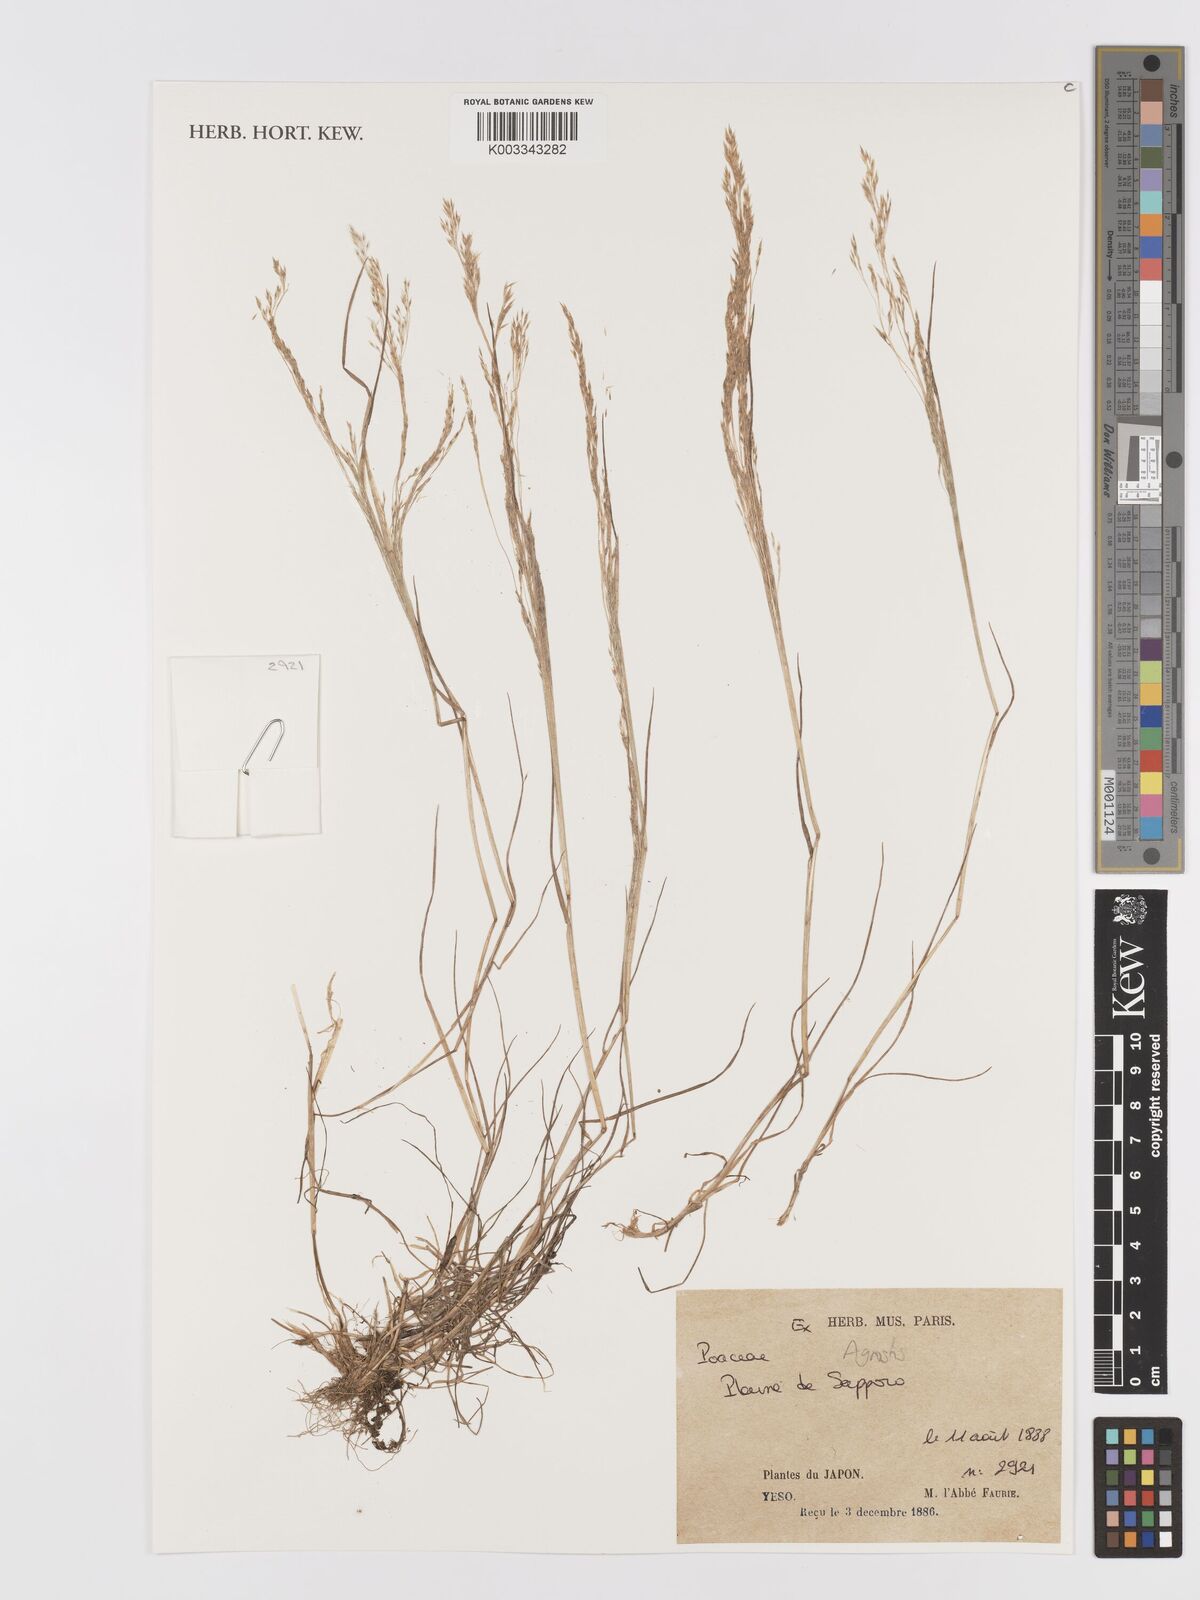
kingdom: Plantae
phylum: Tracheophyta
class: Liliopsida
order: Poales
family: Poaceae
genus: Agrostis
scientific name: Agrostis
